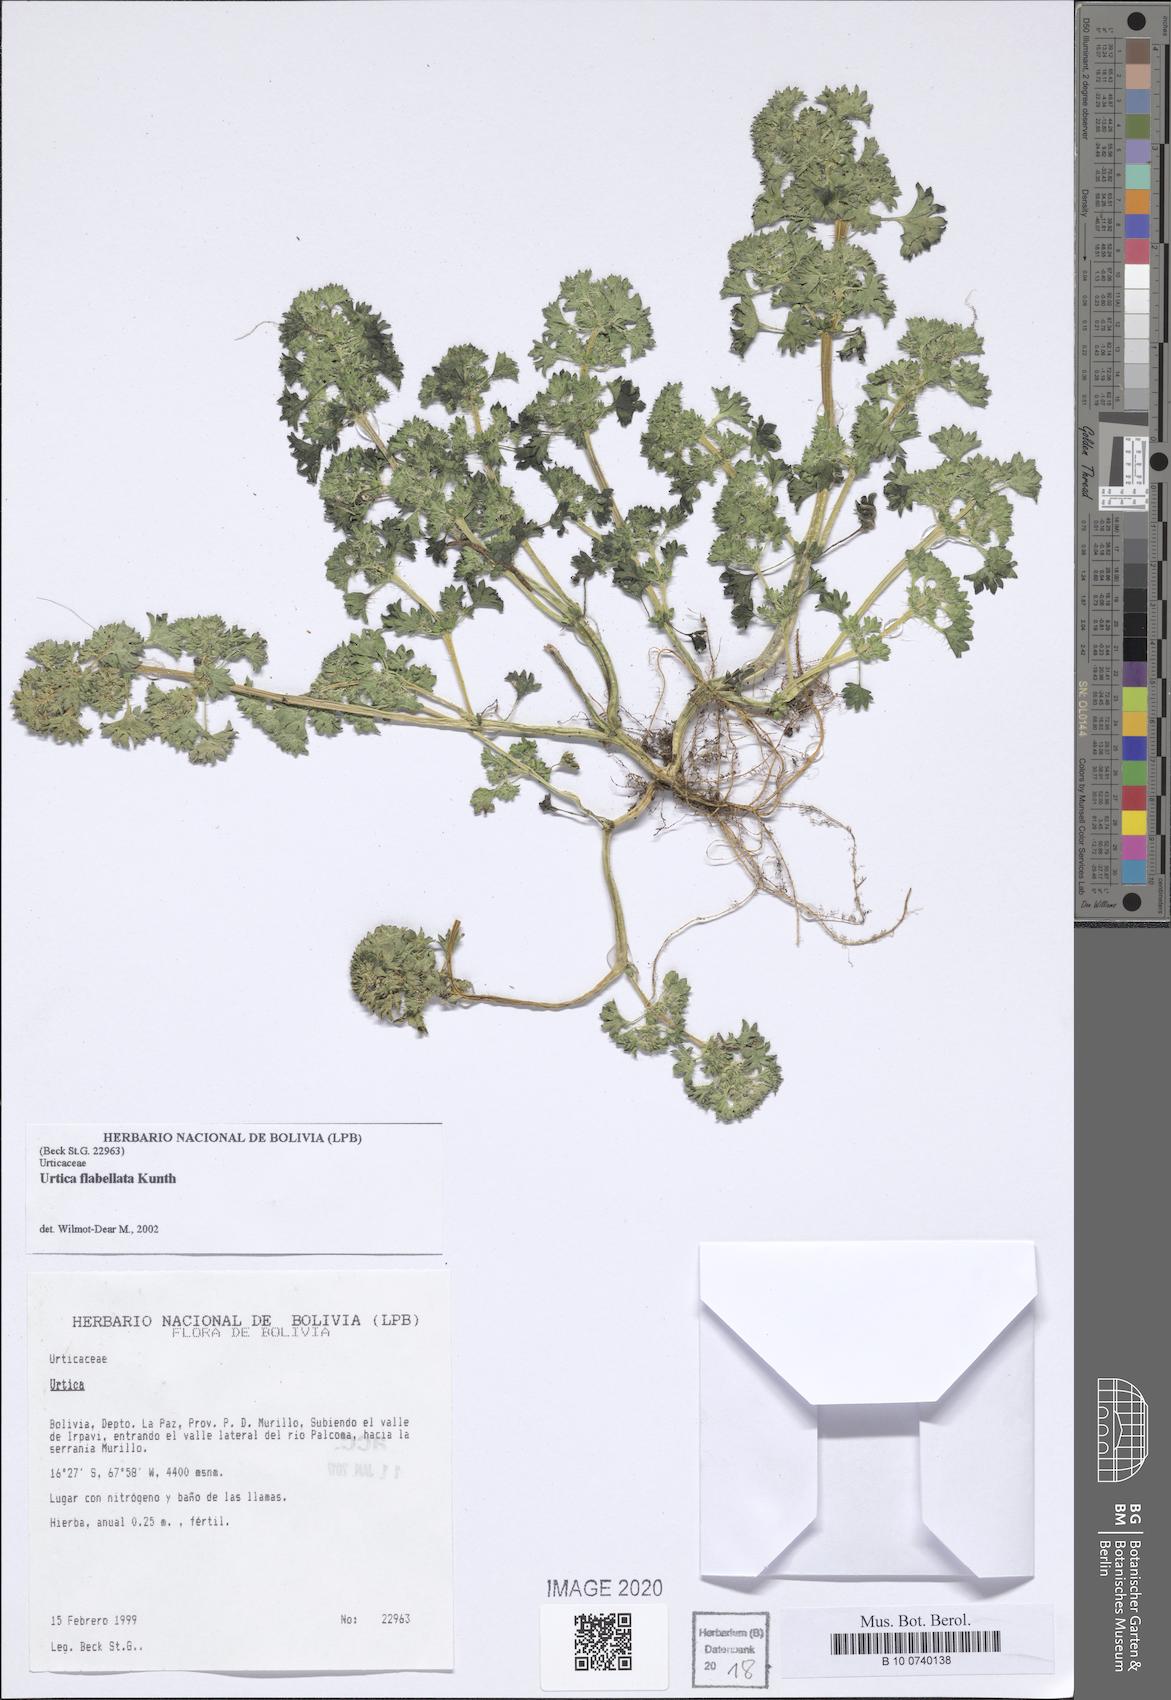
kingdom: Plantae
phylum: Tracheophyta
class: Magnoliopsida
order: Rosales
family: Urticaceae
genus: Urtica
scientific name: Urtica flabellata
